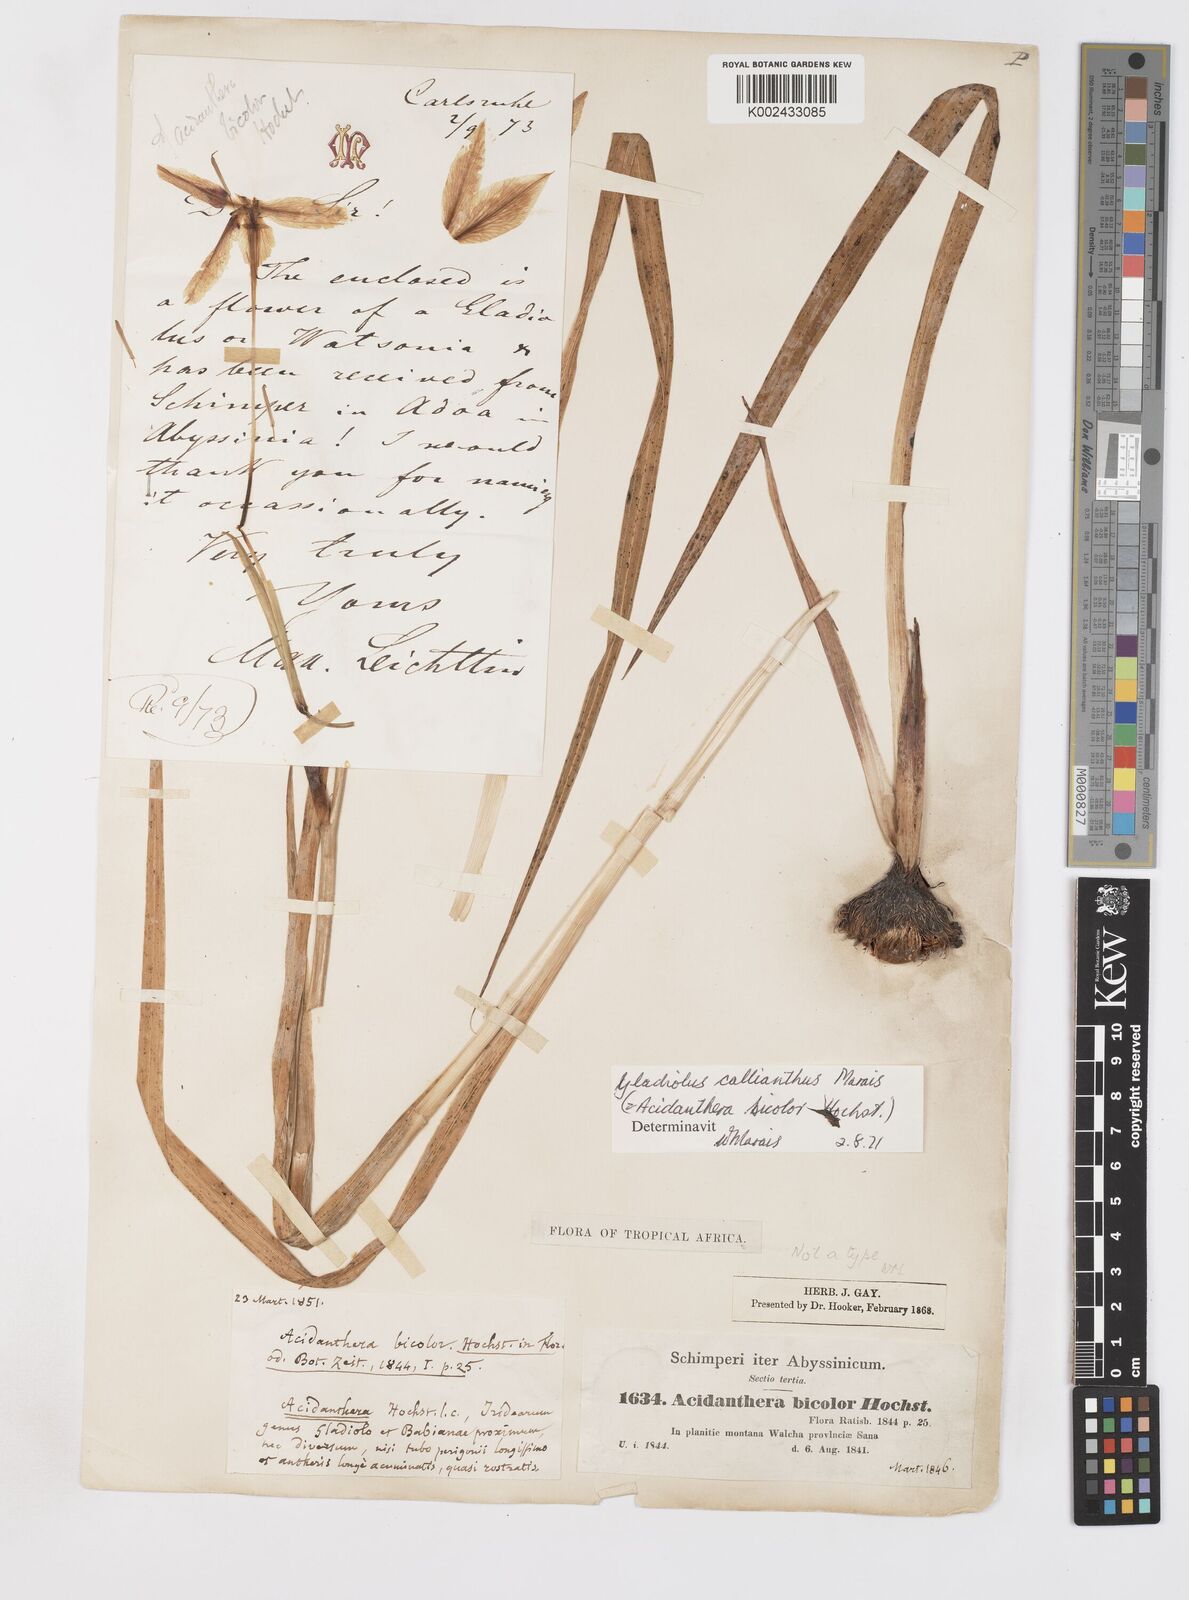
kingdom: Plantae
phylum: Tracheophyta
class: Liliopsida
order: Asparagales
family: Iridaceae
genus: Gladiolus
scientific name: Gladiolus murielae
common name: Acidanthera
